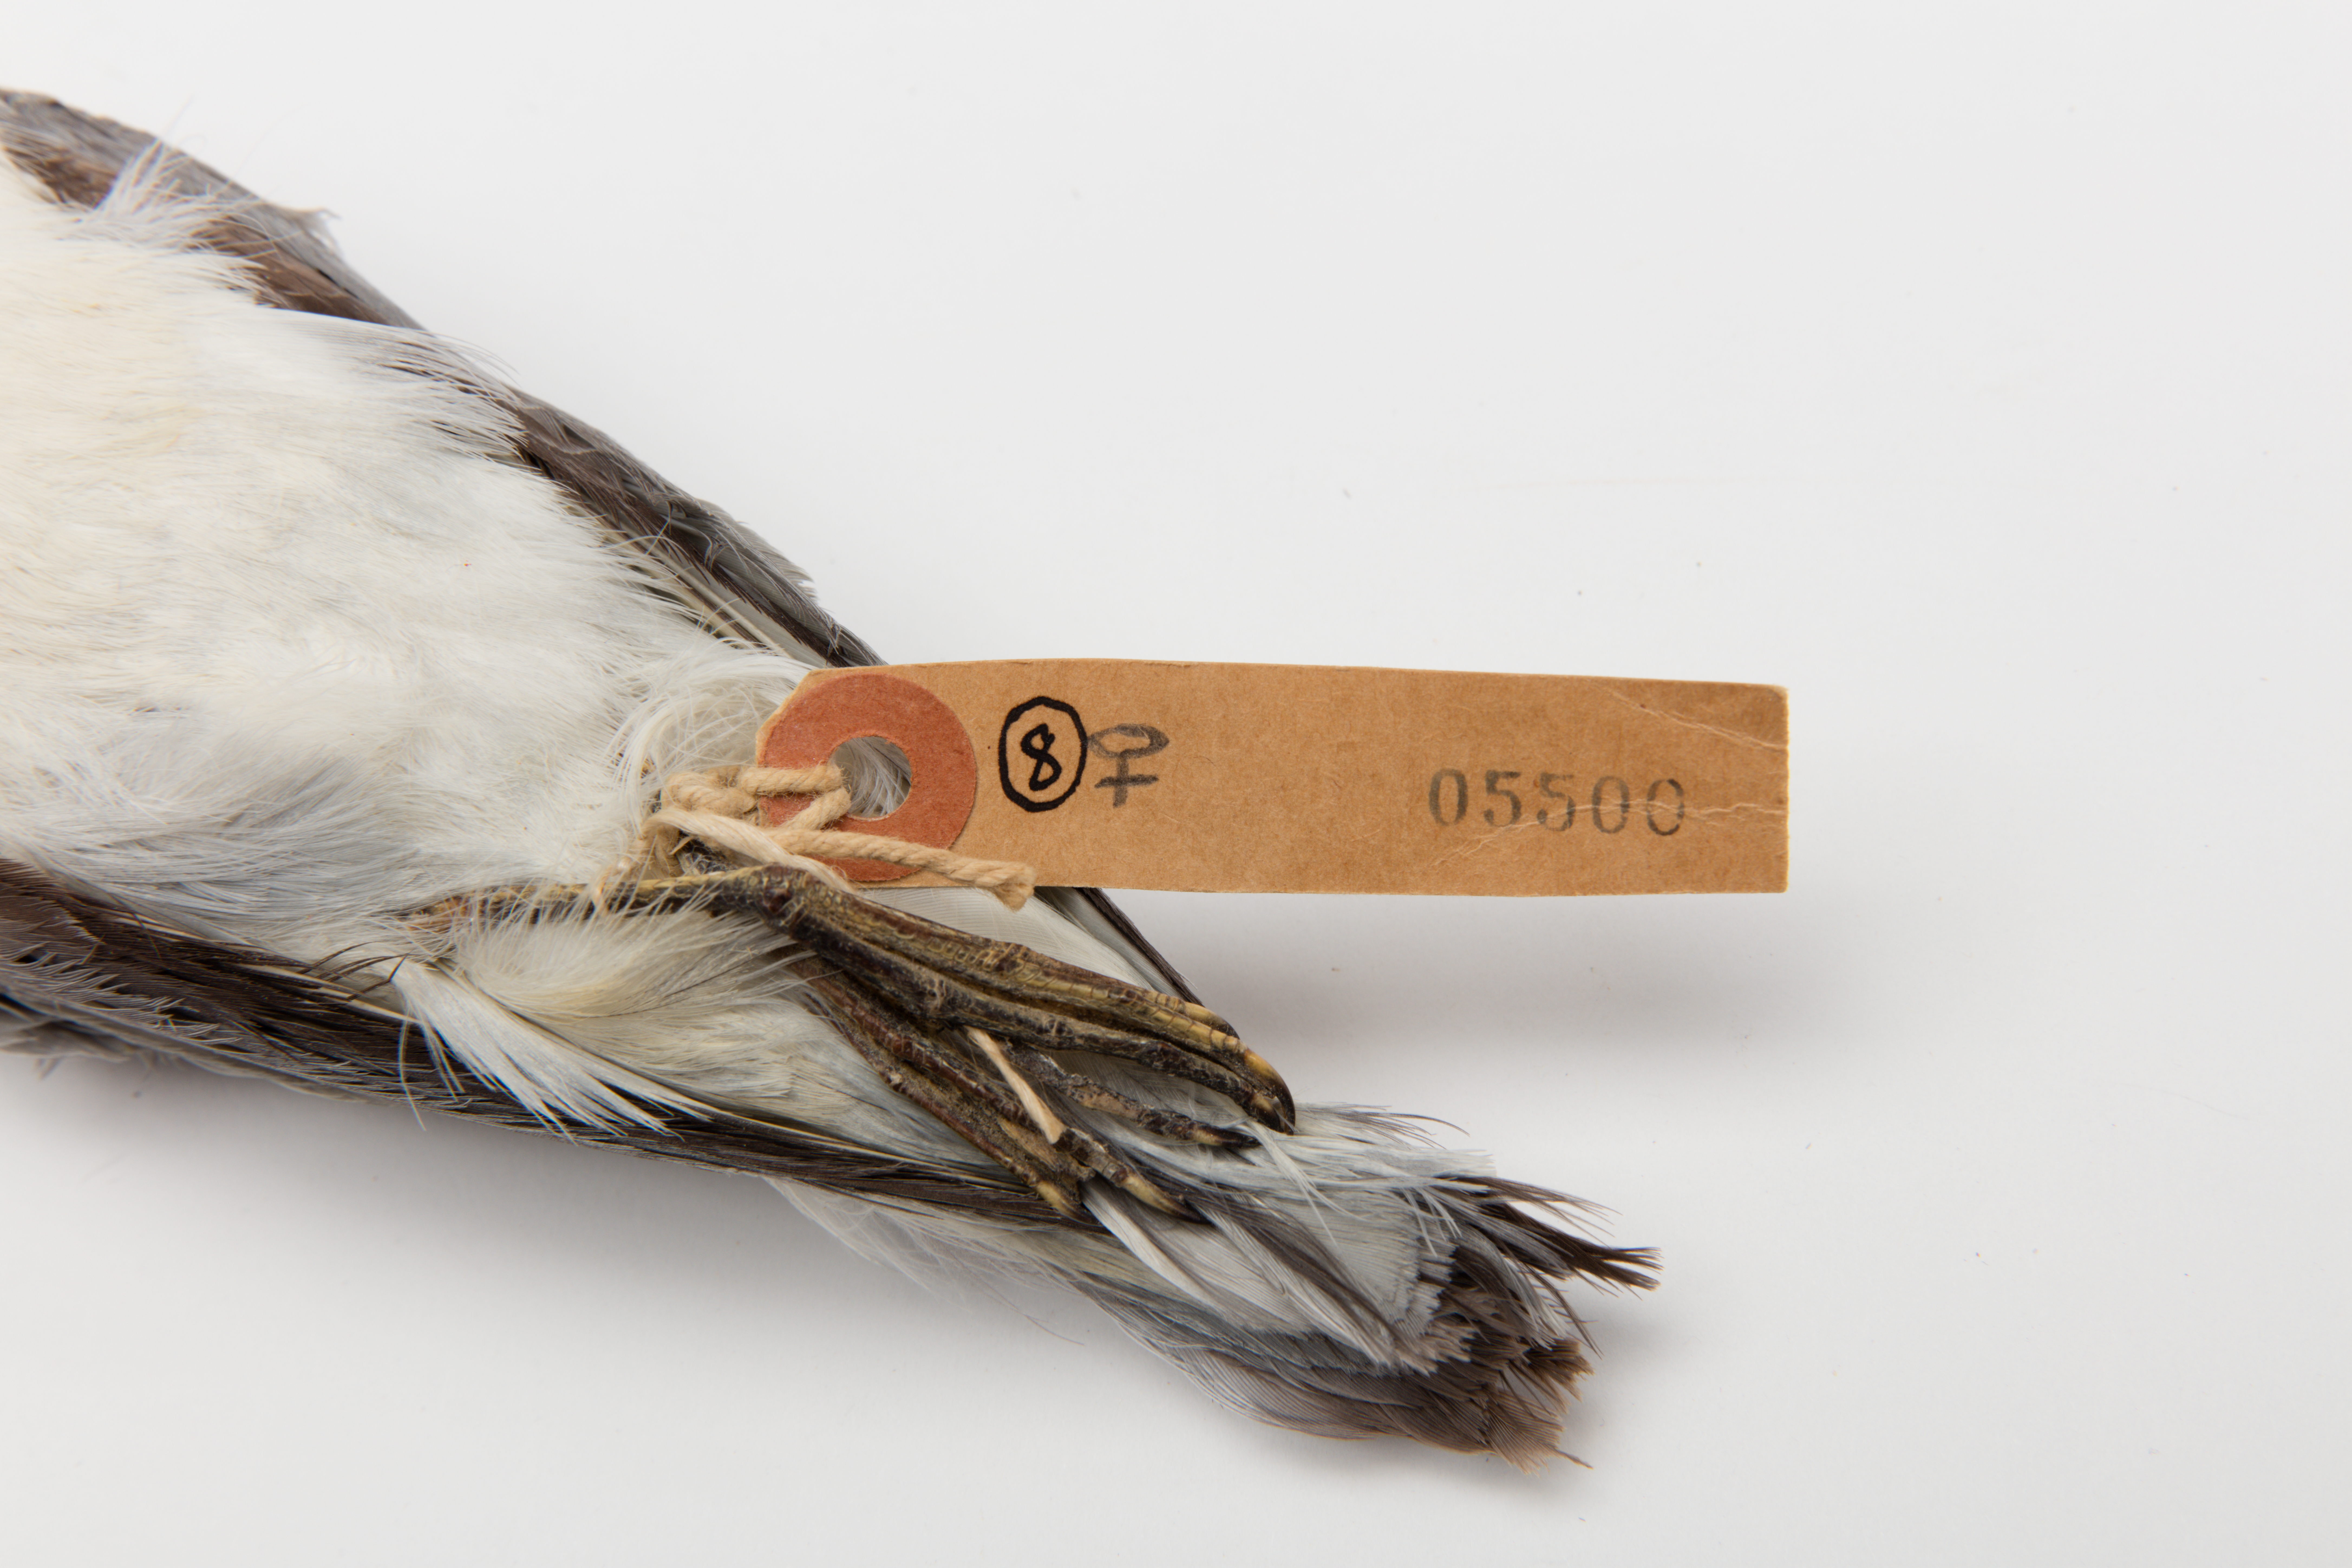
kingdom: Animalia
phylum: Chordata
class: Aves
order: Procellariiformes
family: Procellariidae
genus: Pachyptila
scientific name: Pachyptila desolata
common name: Antarctic prion
